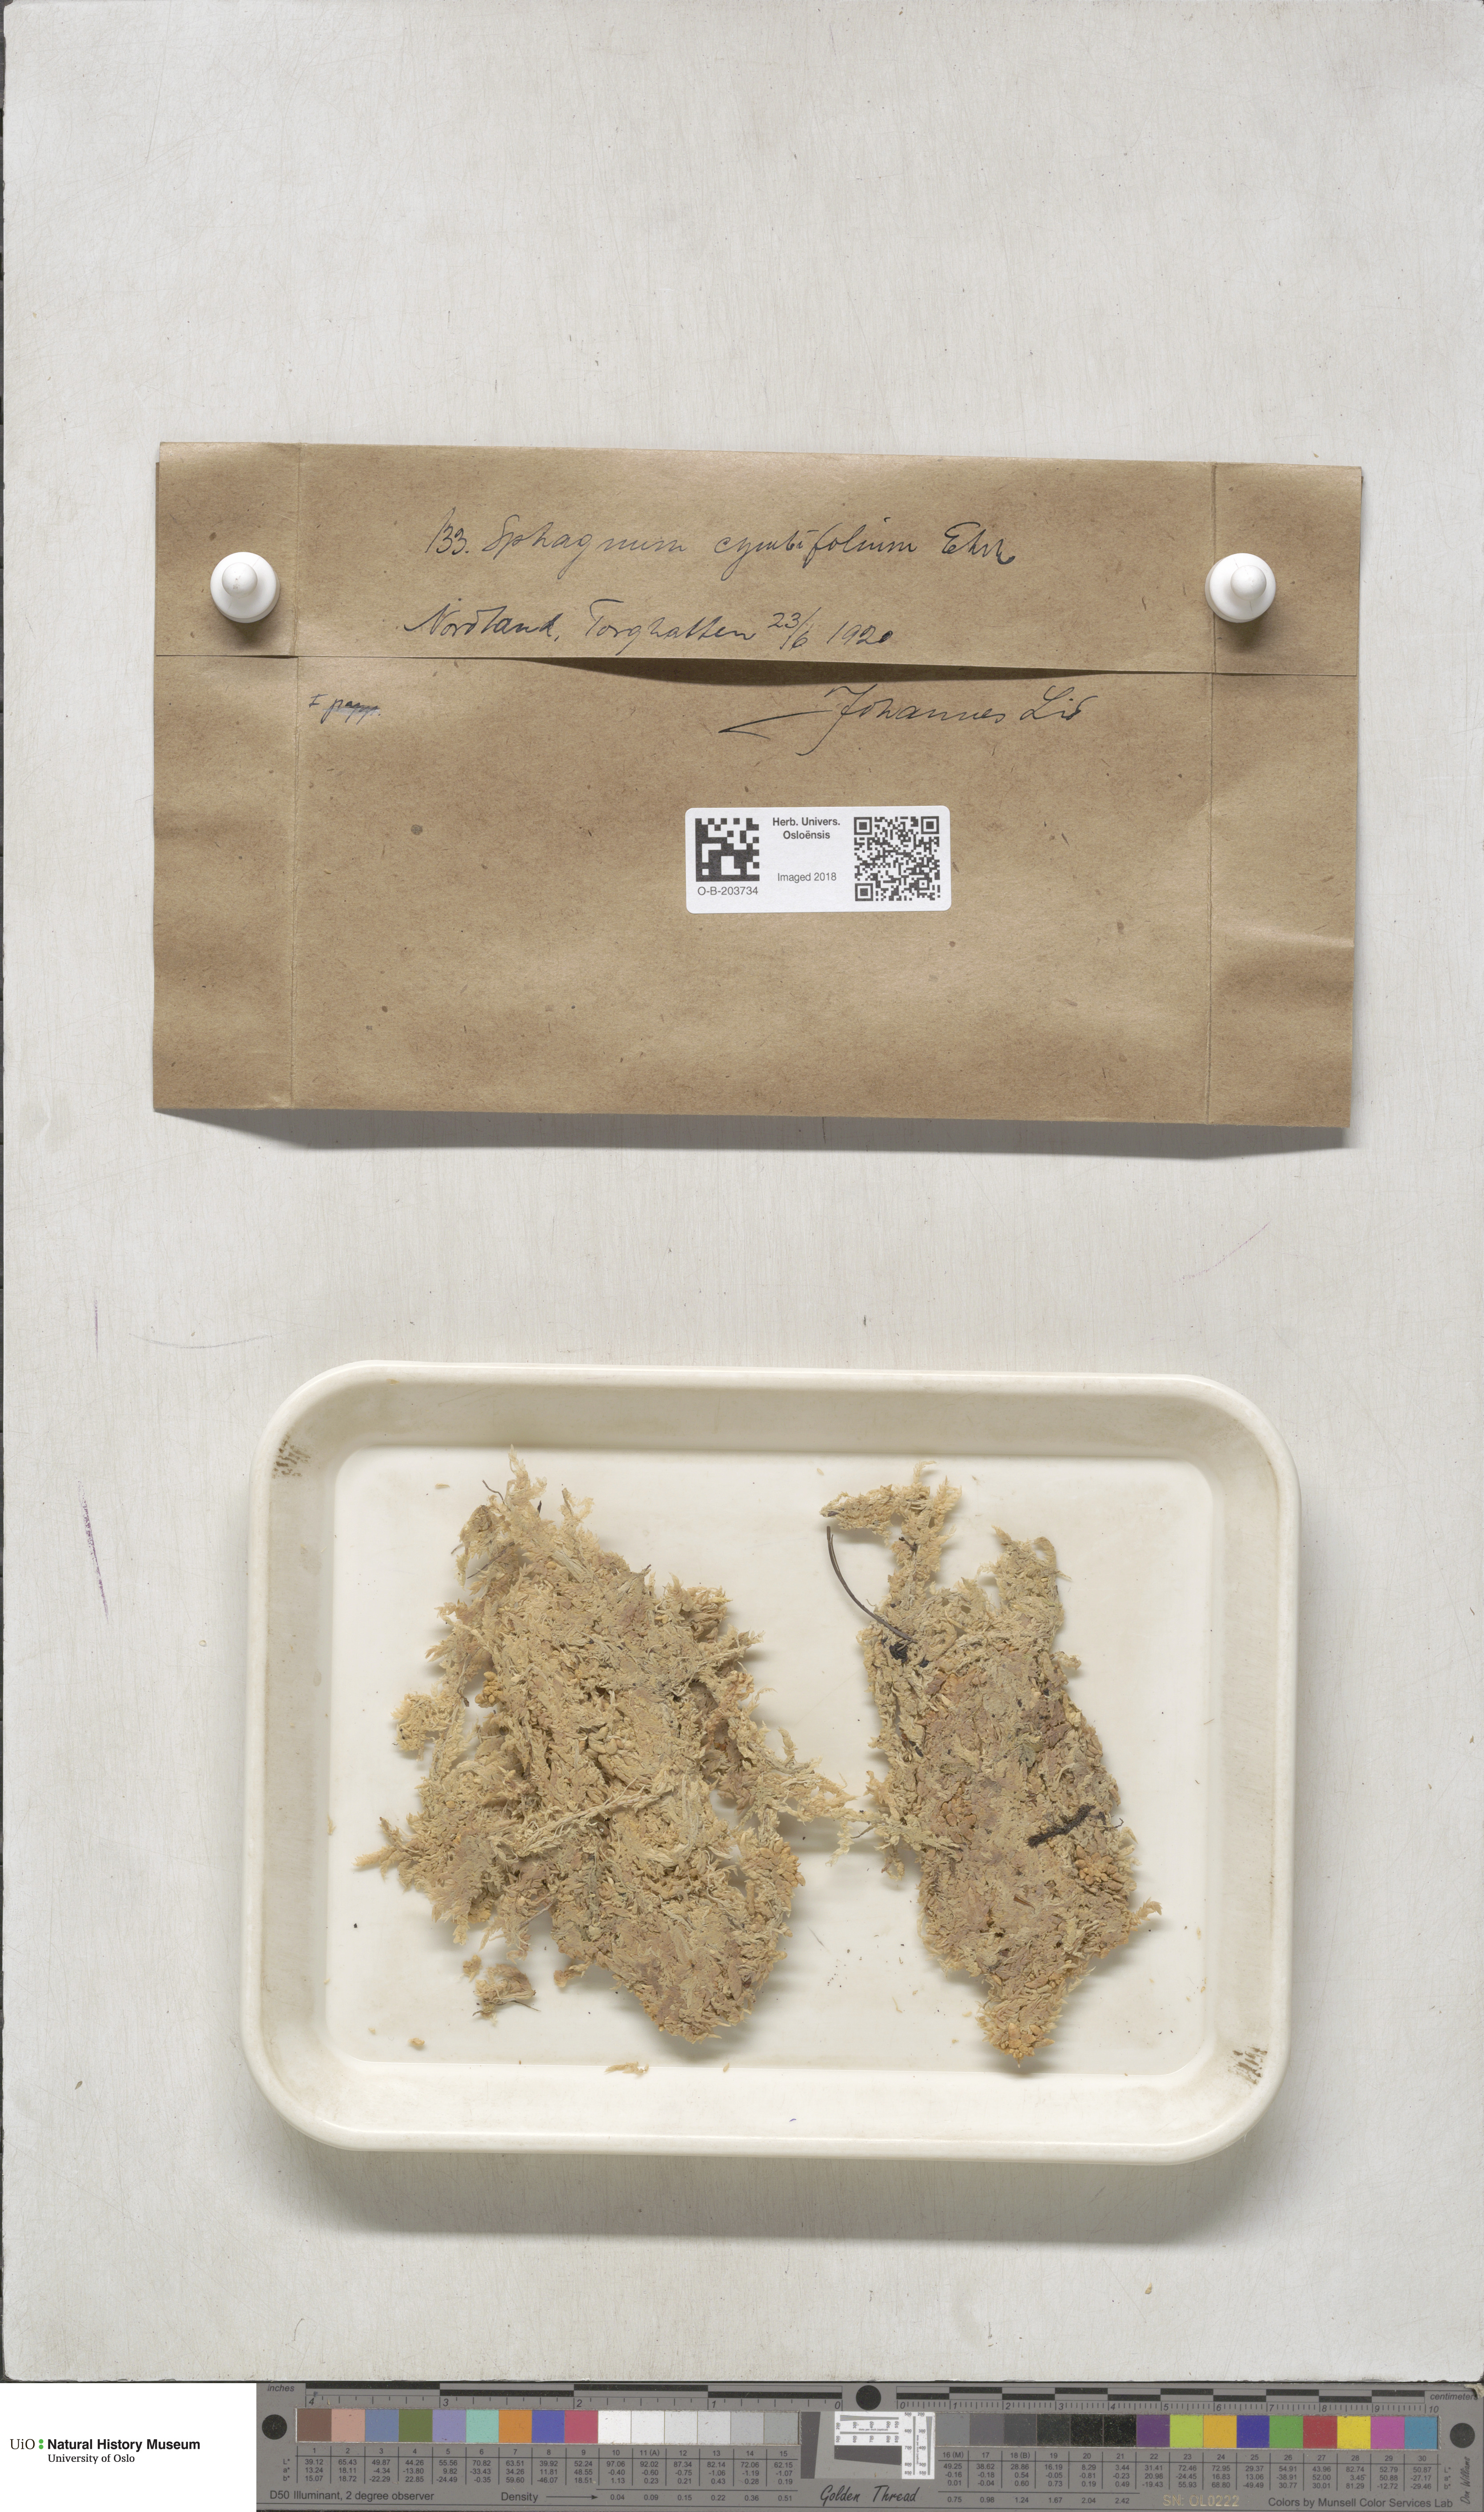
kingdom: Plantae
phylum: Bryophyta
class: Sphagnopsida
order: Sphagnales
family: Sphagnaceae
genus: Sphagnum
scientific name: Sphagnum palustre
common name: Blunt-leaved bog-moss
